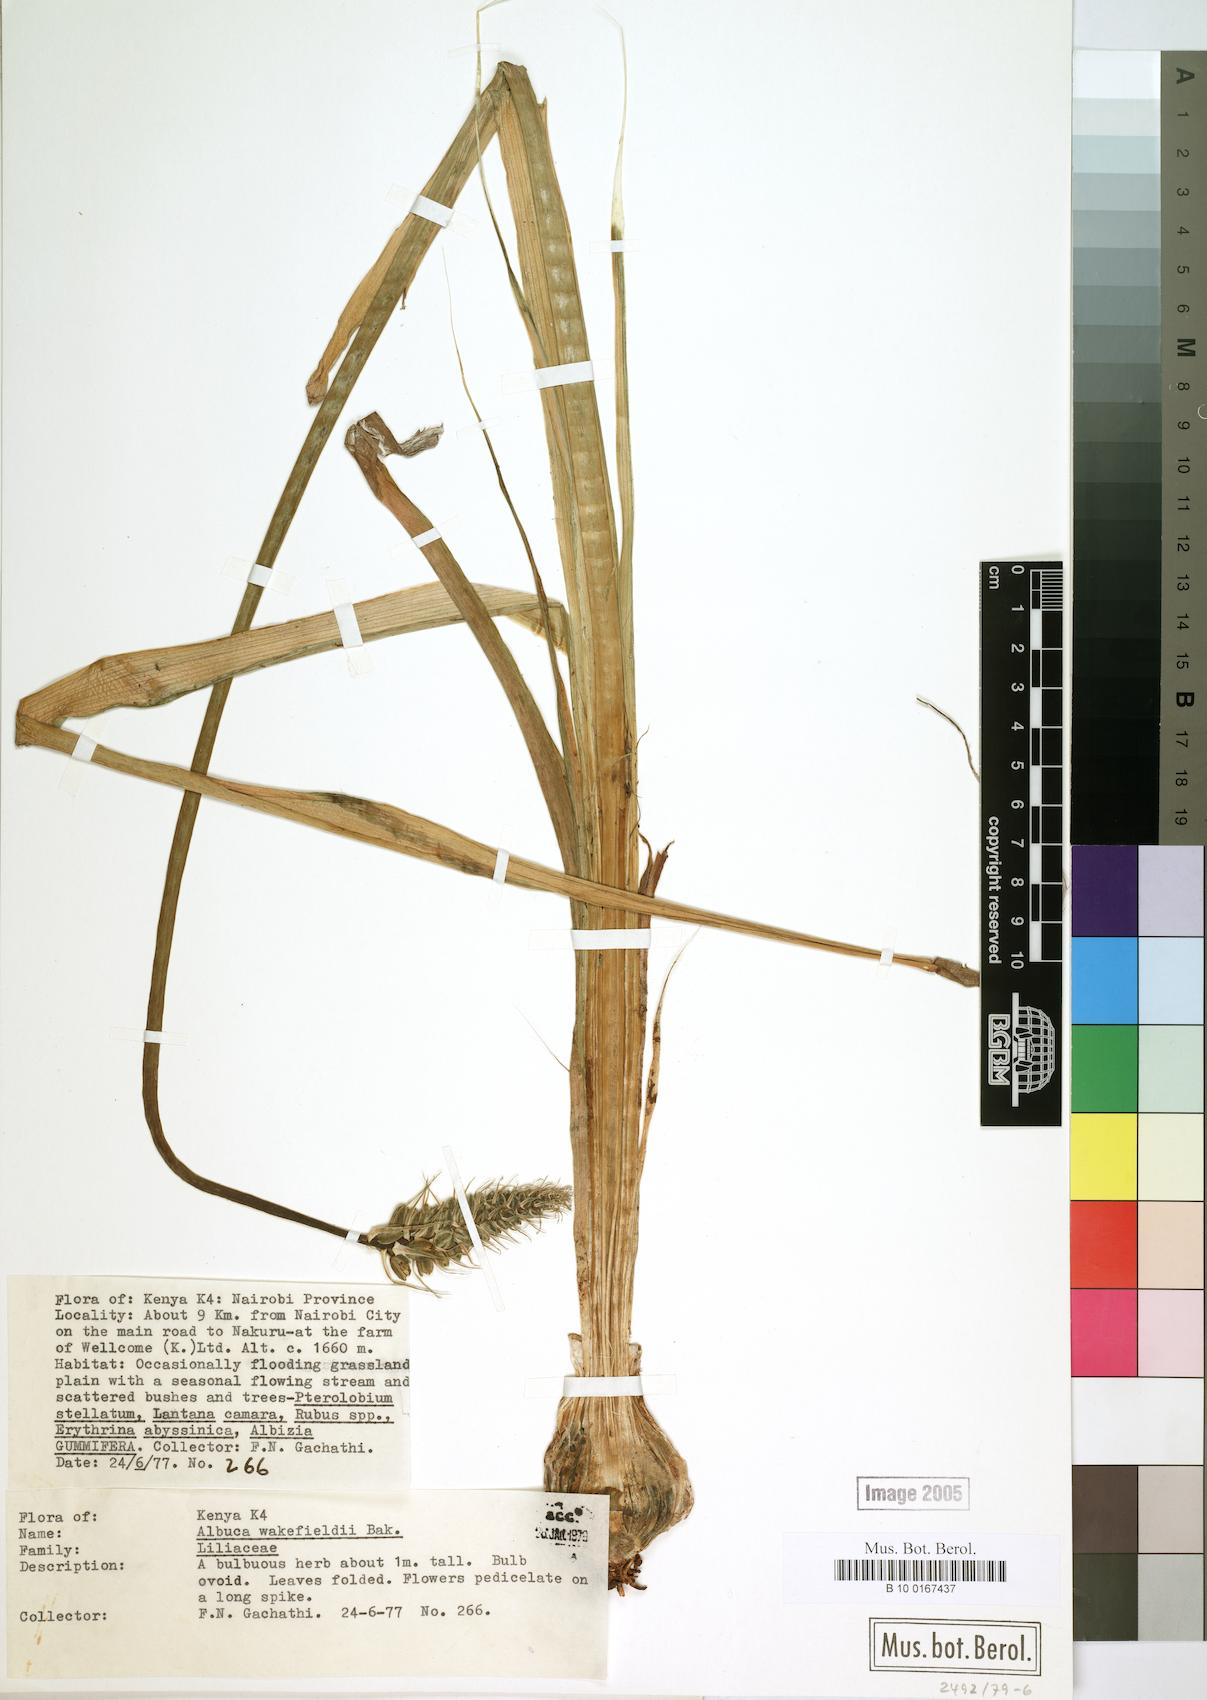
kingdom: Plantae
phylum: Tracheophyta
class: Liliopsida
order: Asparagales
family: Asparagaceae
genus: Albuca
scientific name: Albuca abyssinica
